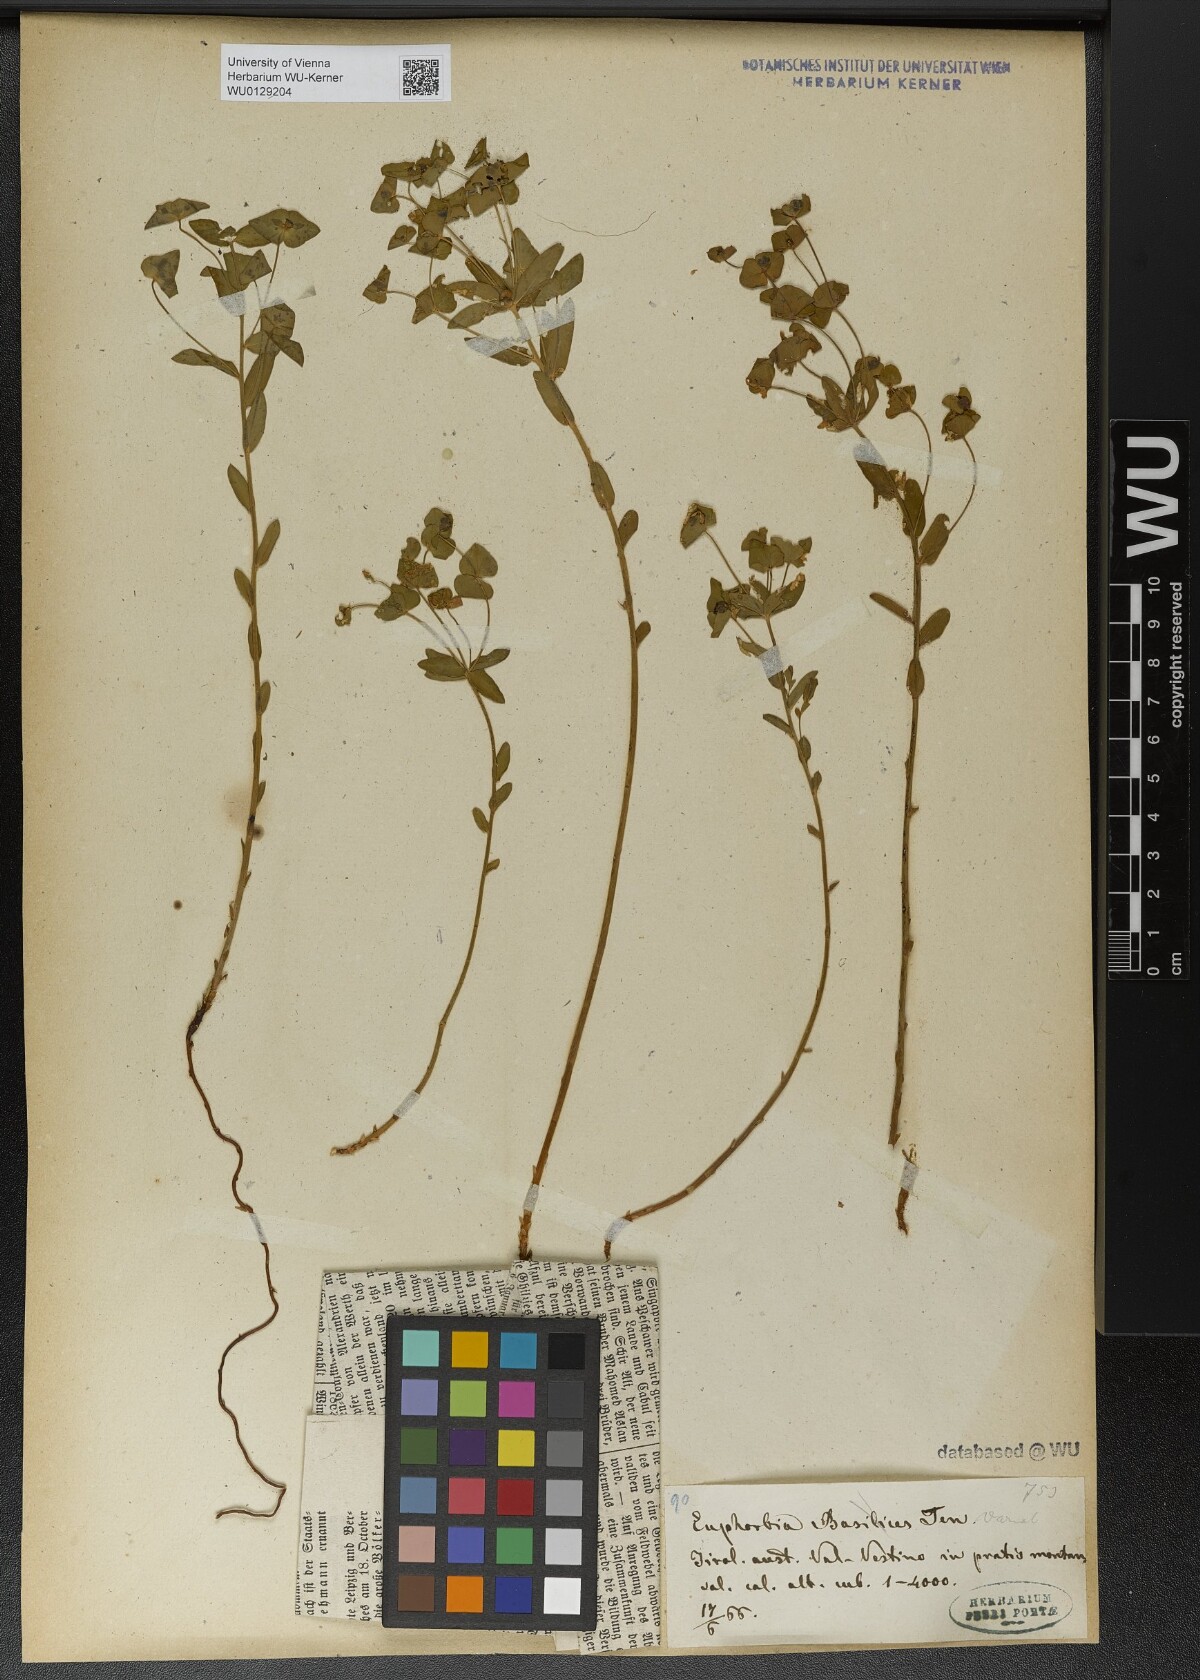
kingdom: Plantae
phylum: Tracheophyta
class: Magnoliopsida
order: Malpighiales
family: Euphorbiaceae
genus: Euphorbia
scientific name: Euphorbia variabilis
